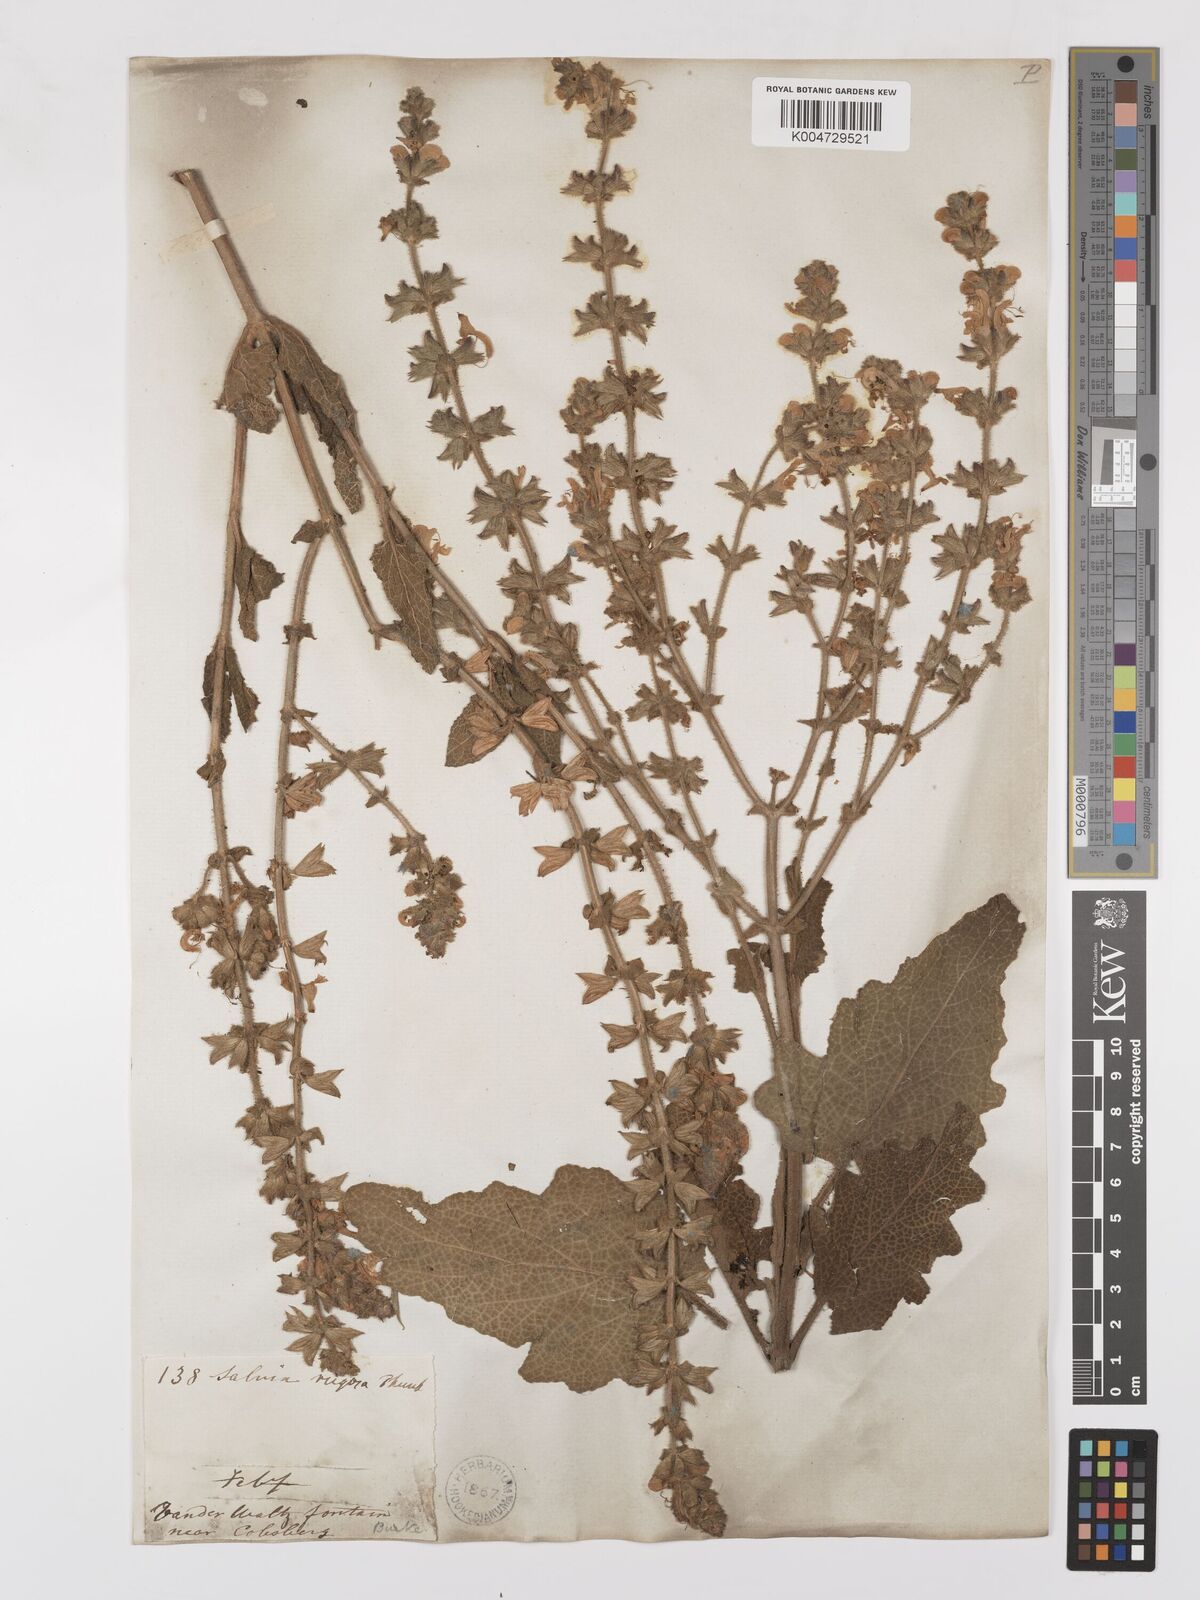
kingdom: Plantae
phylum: Tracheophyta
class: Magnoliopsida
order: Lamiales
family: Lamiaceae
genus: Salvia
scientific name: Salvia
